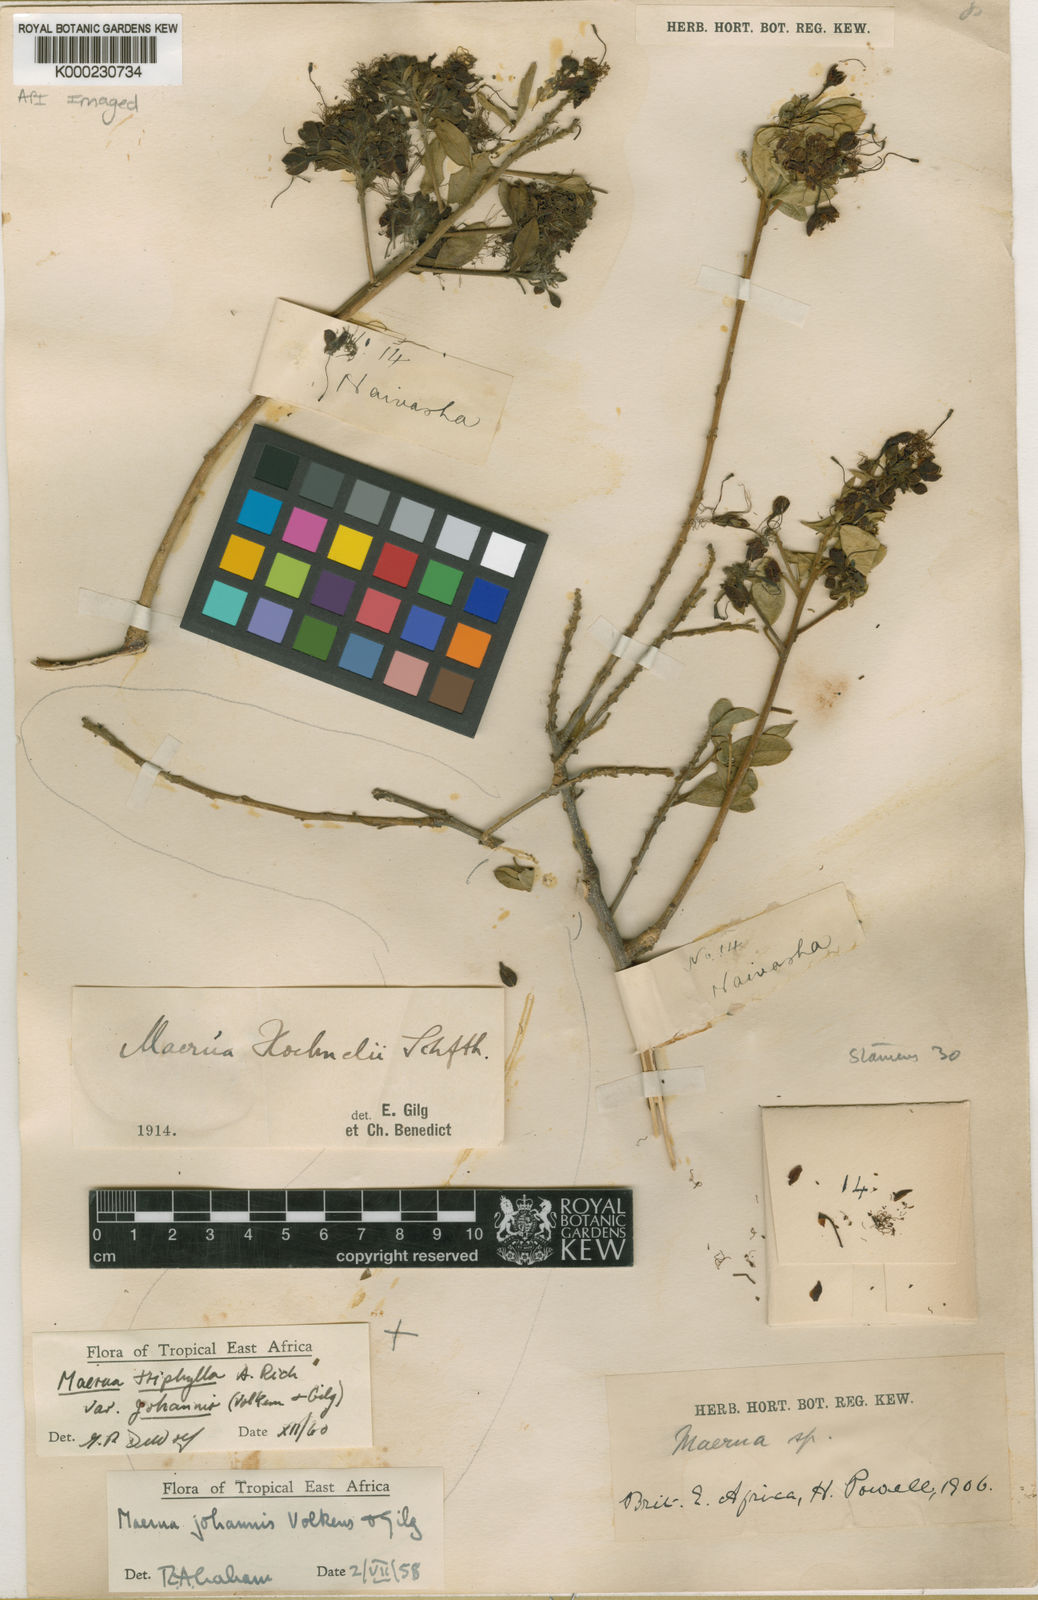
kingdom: Plantae
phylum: Tracheophyta
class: Magnoliopsida
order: Brassicales
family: Capparaceae
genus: Maerua
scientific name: Maerua triphylla
